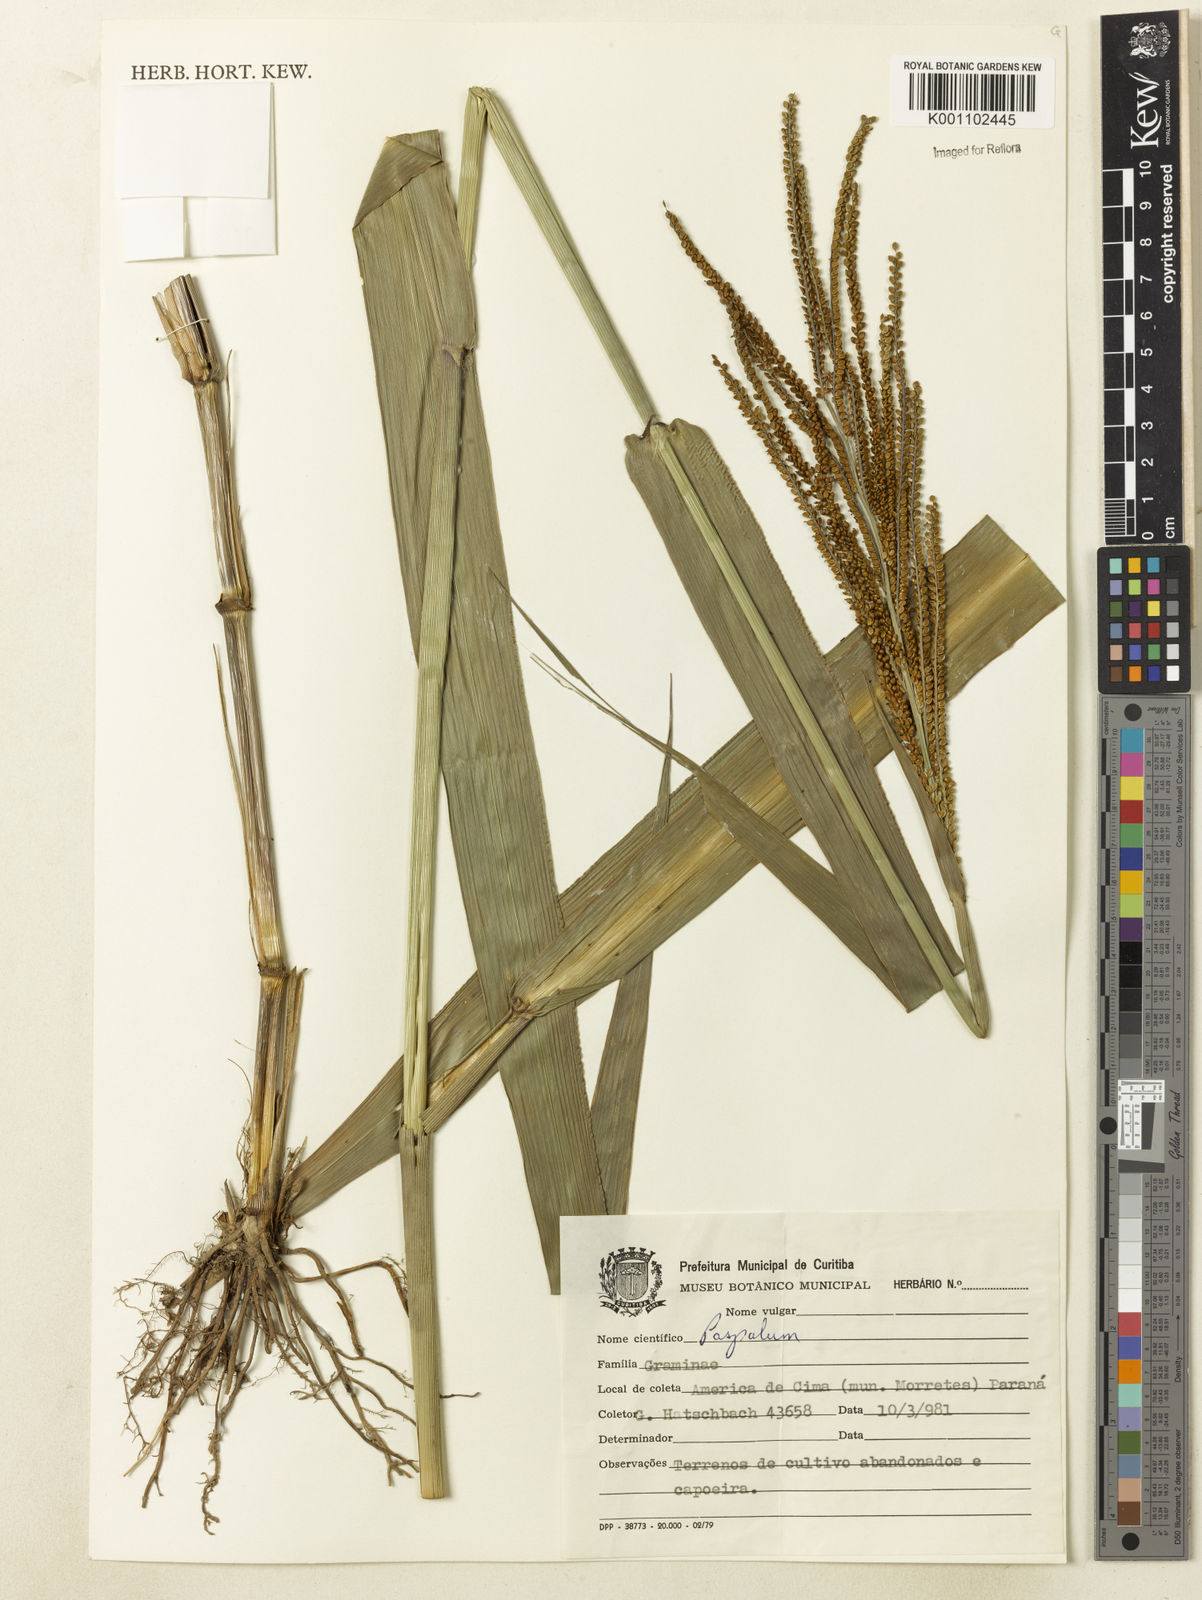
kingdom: Plantae
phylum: Tracheophyta
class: Liliopsida
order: Poales
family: Poaceae
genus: Paspalum
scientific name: Paspalum virgatum
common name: Talquezal
